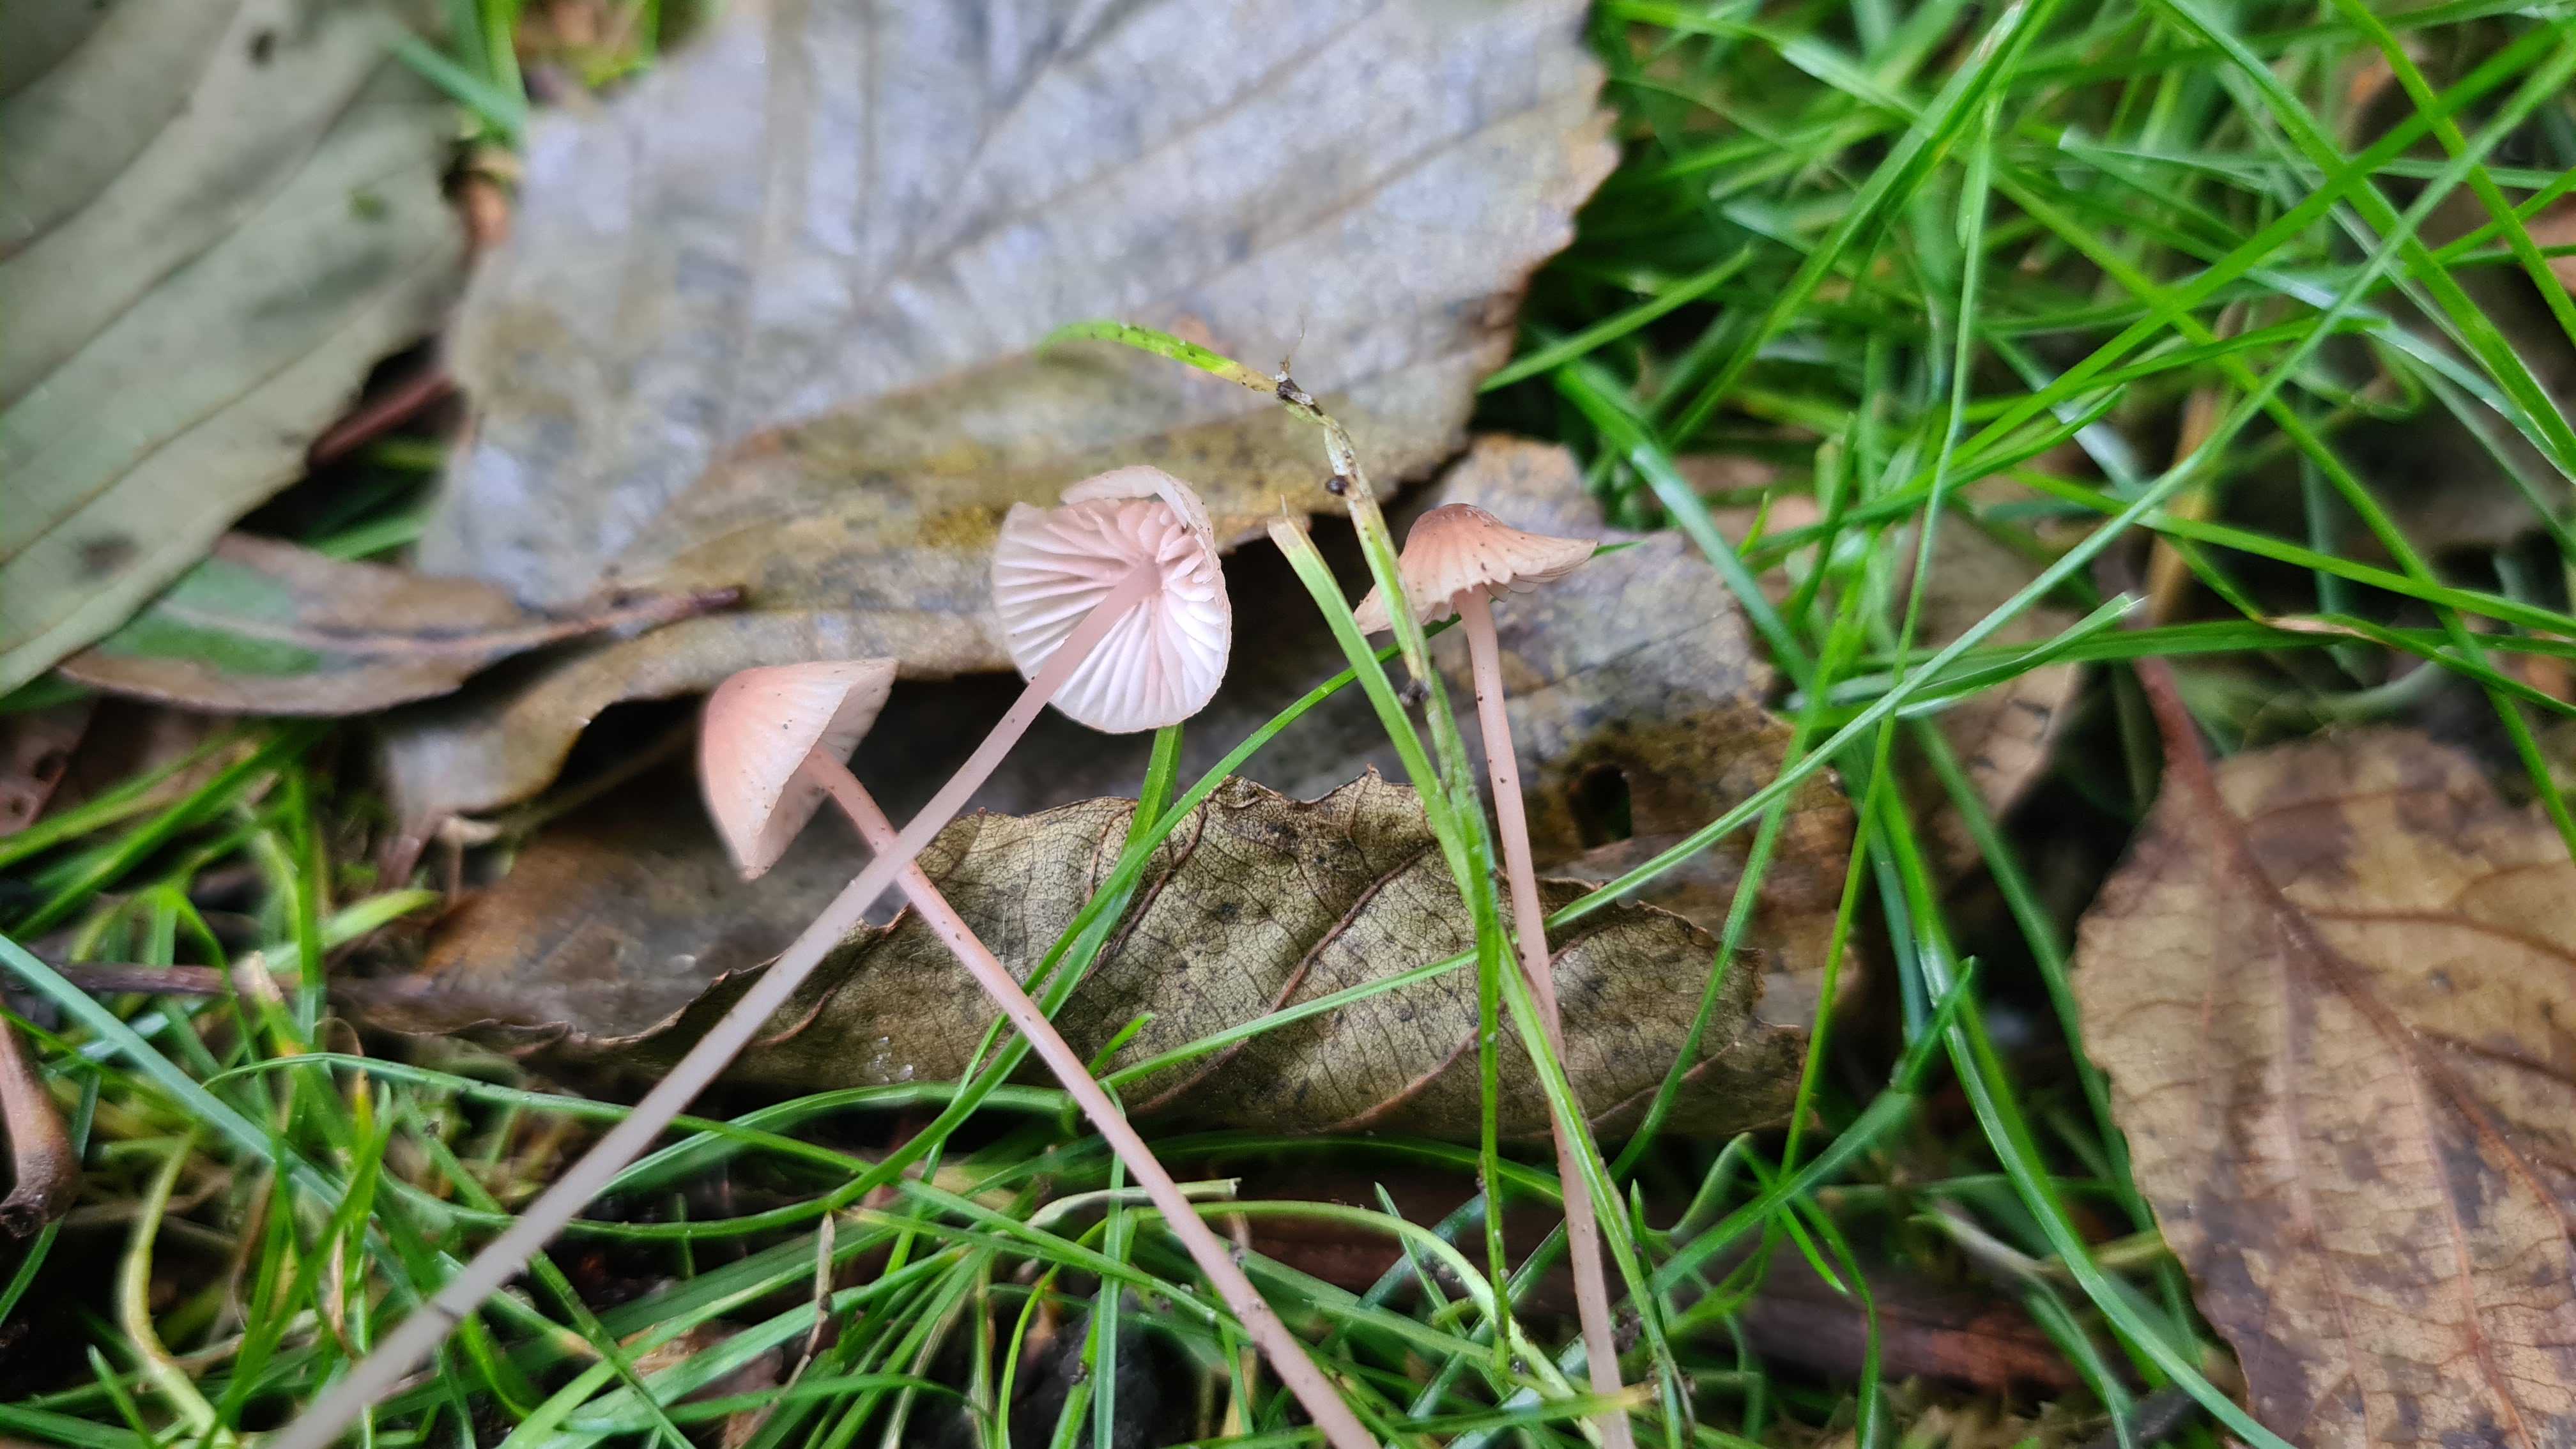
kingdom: Fungi
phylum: Basidiomycota
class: Agaricomycetes
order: Agaricales
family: Mycenaceae
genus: Mycena
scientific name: Mycena sanguinolenta
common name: rødmælket huesvamp
